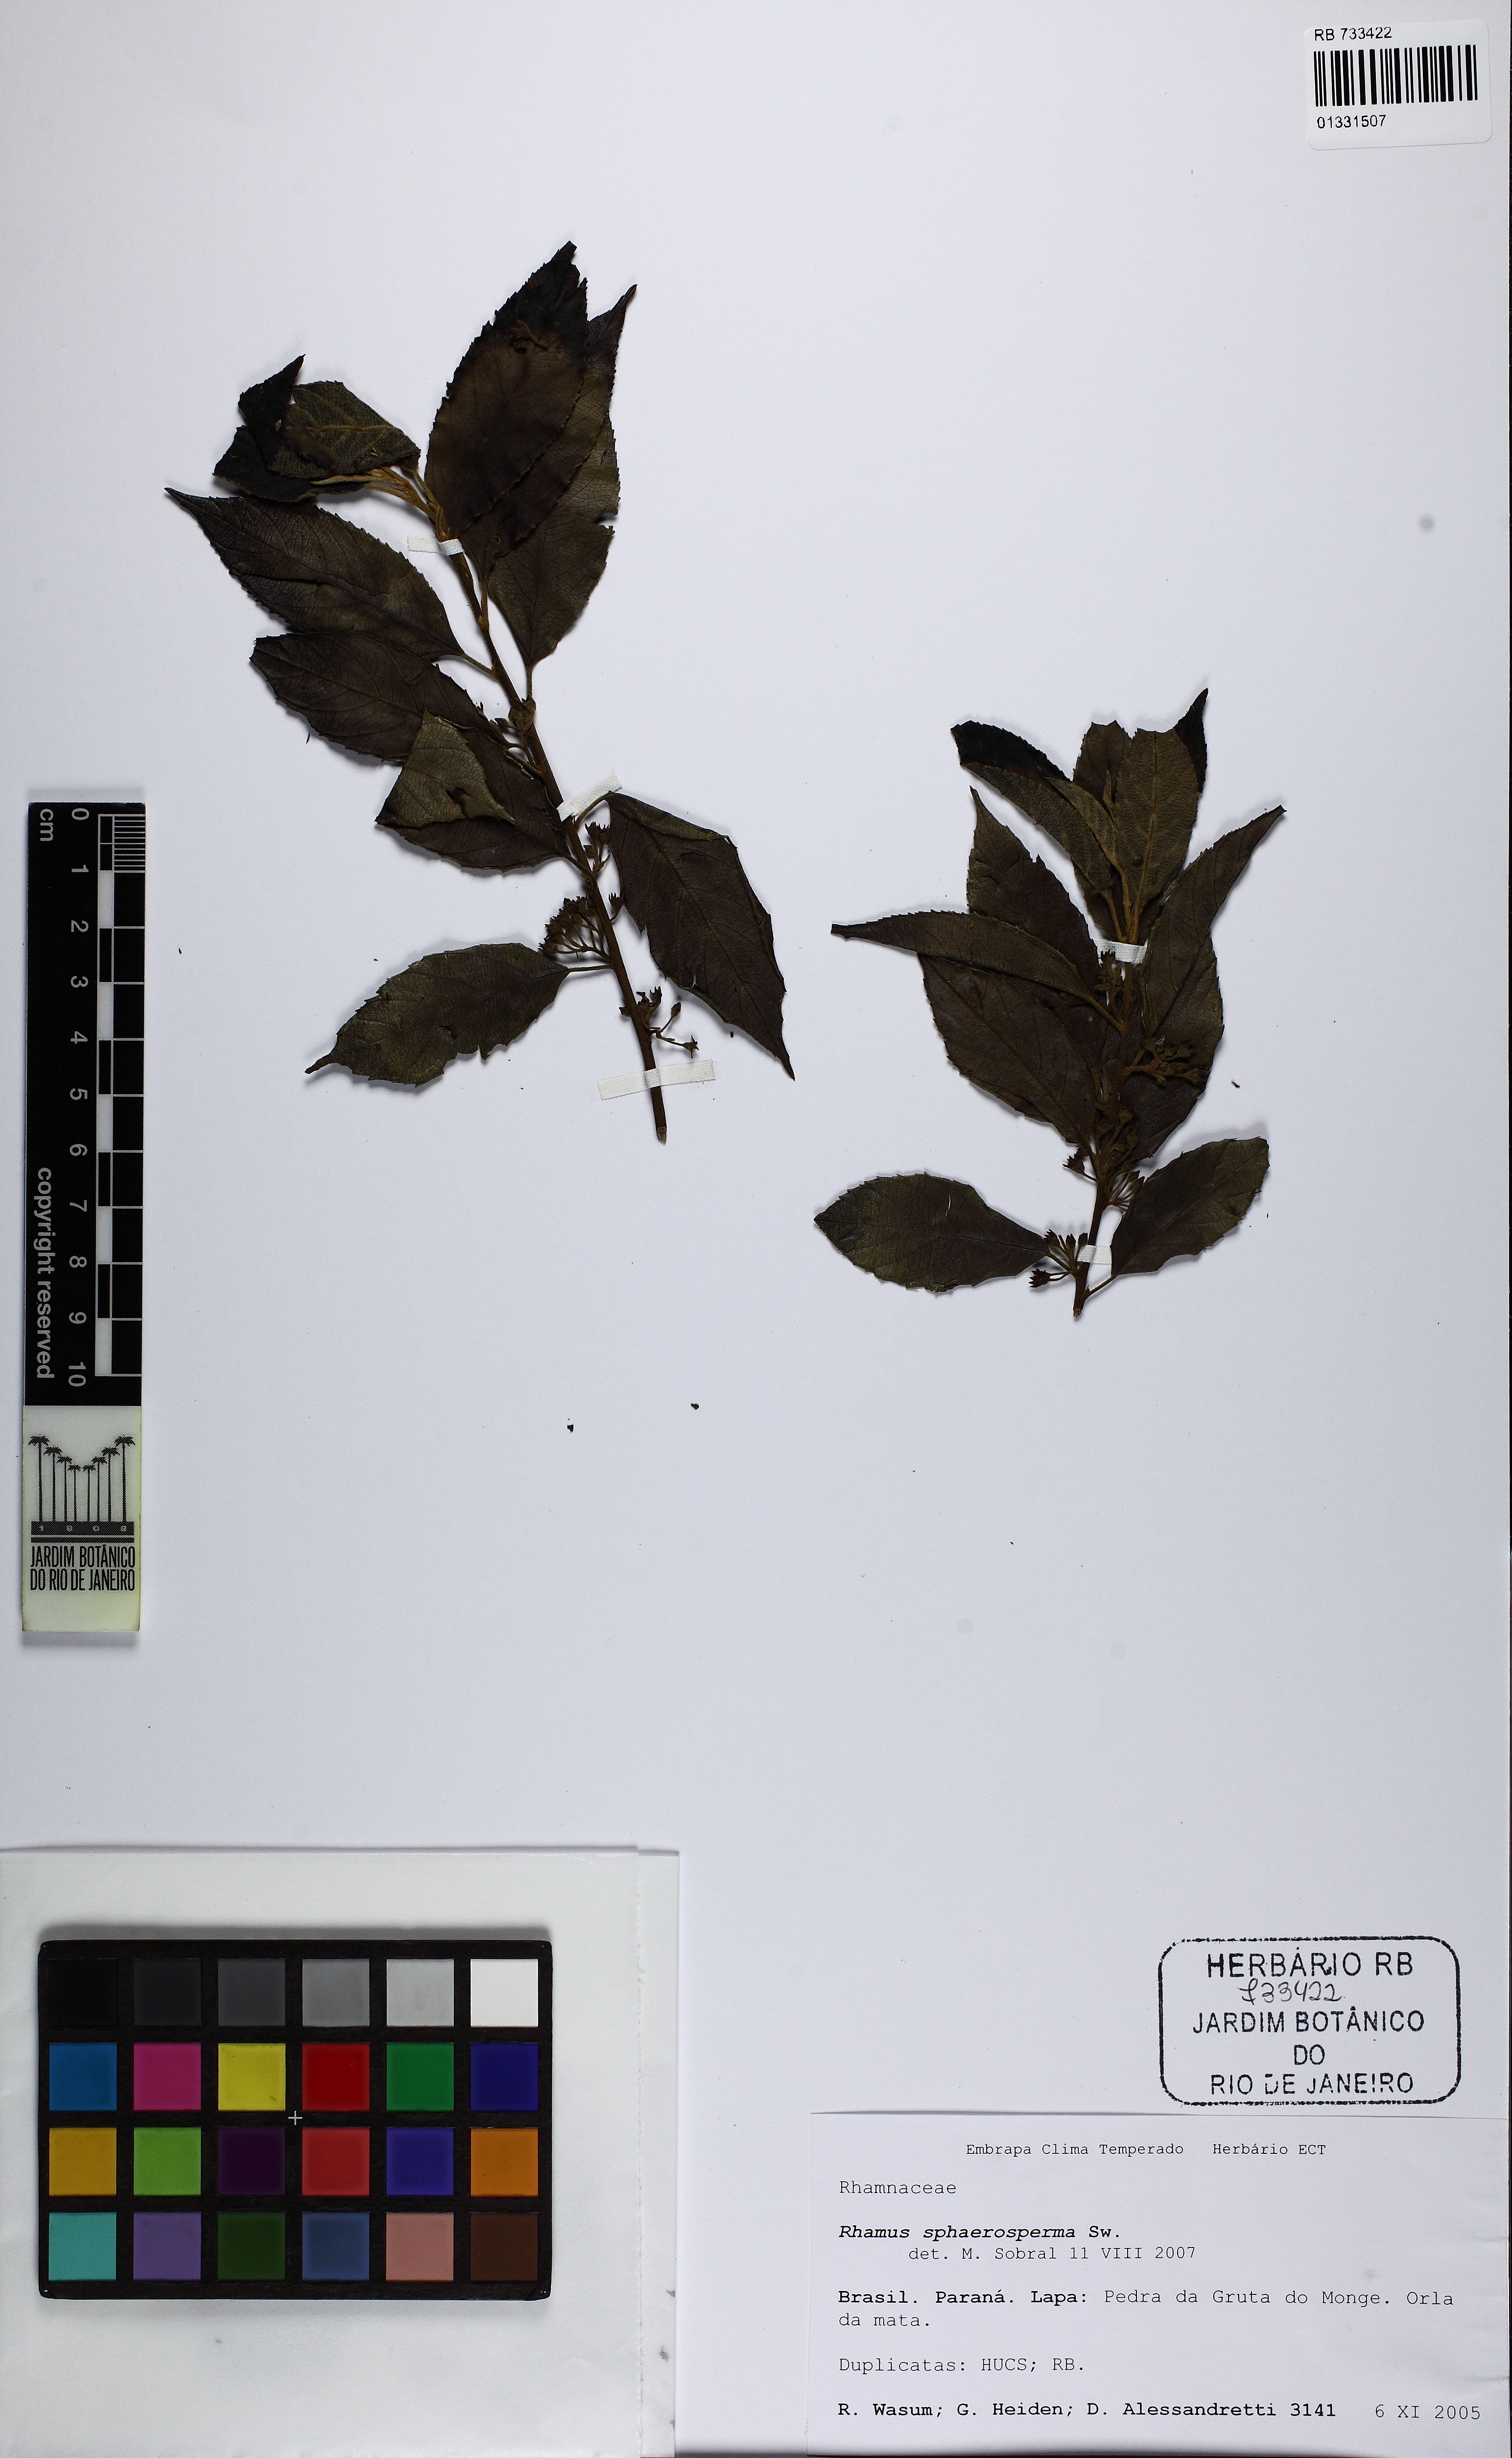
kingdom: Plantae
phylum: Tracheophyta
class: Magnoliopsida
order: Rosales
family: Rhamnaceae
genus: Frangula
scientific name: Frangula sphaerosperma
